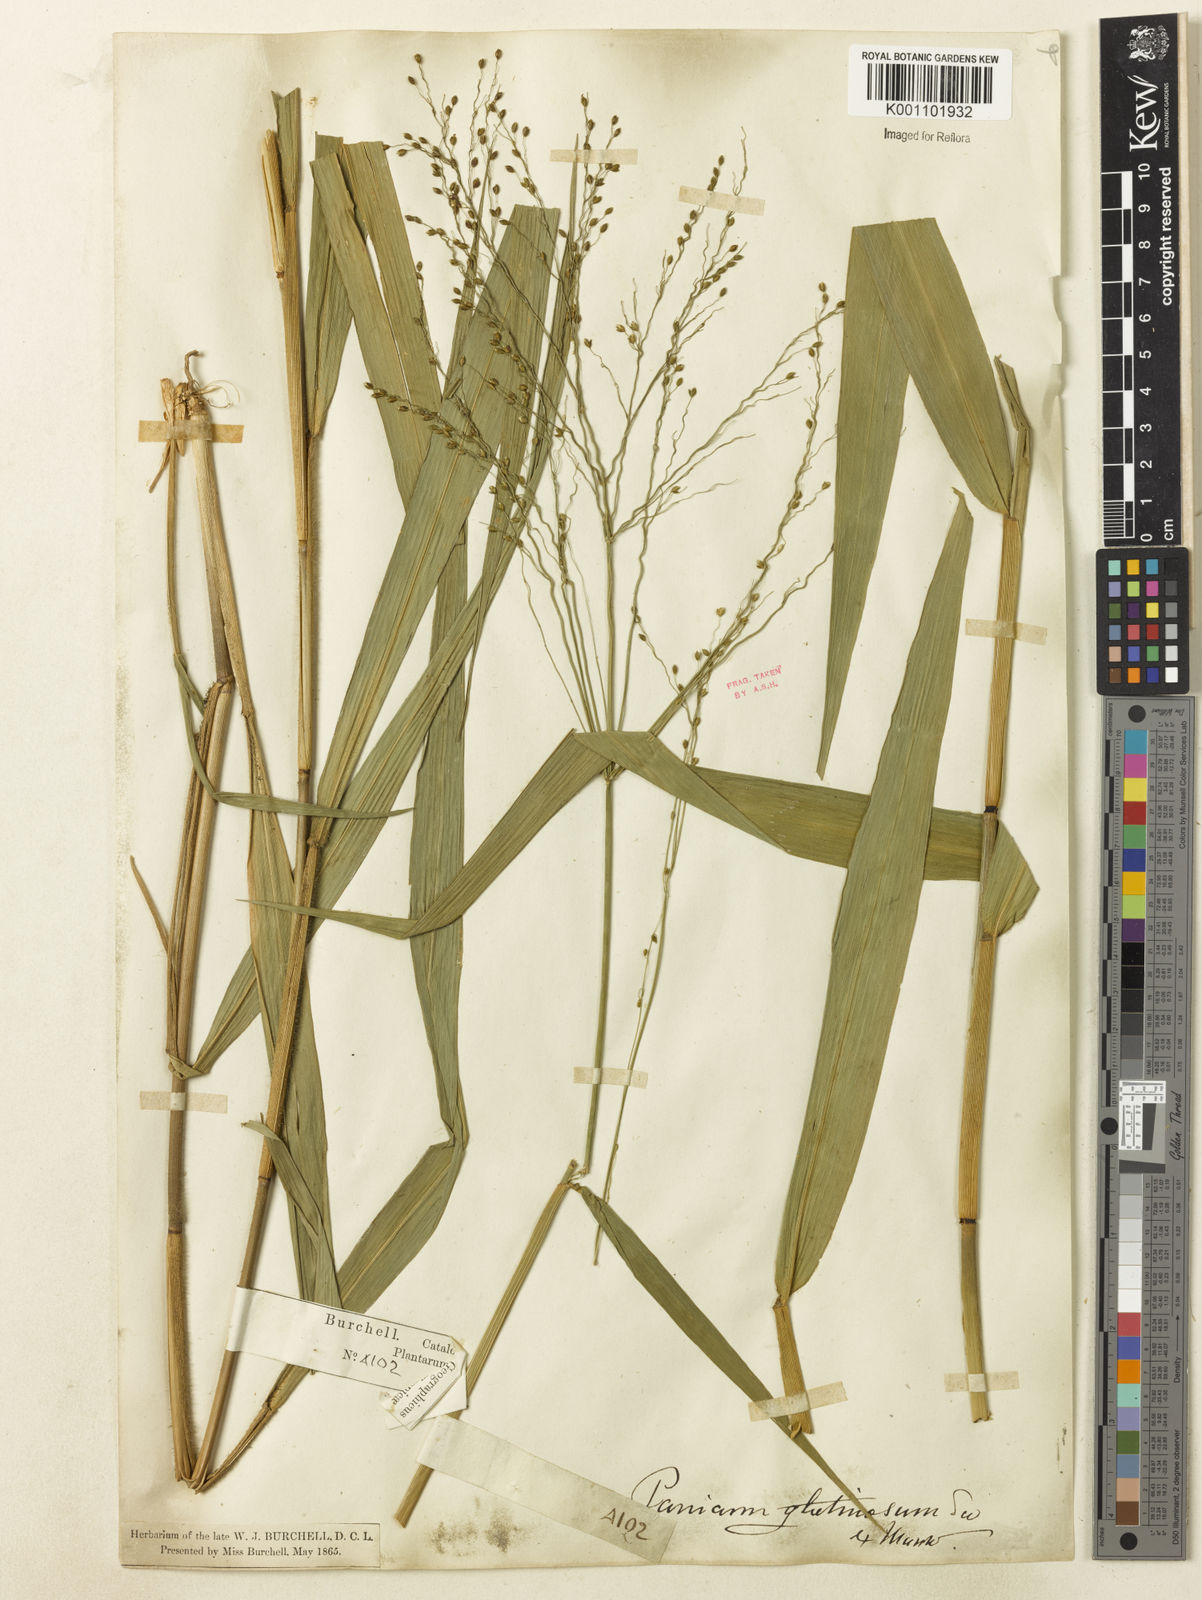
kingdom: Plantae
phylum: Tracheophyta
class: Liliopsida
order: Poales
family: Poaceae
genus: Homolepis
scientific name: Homolepis glutinosa
